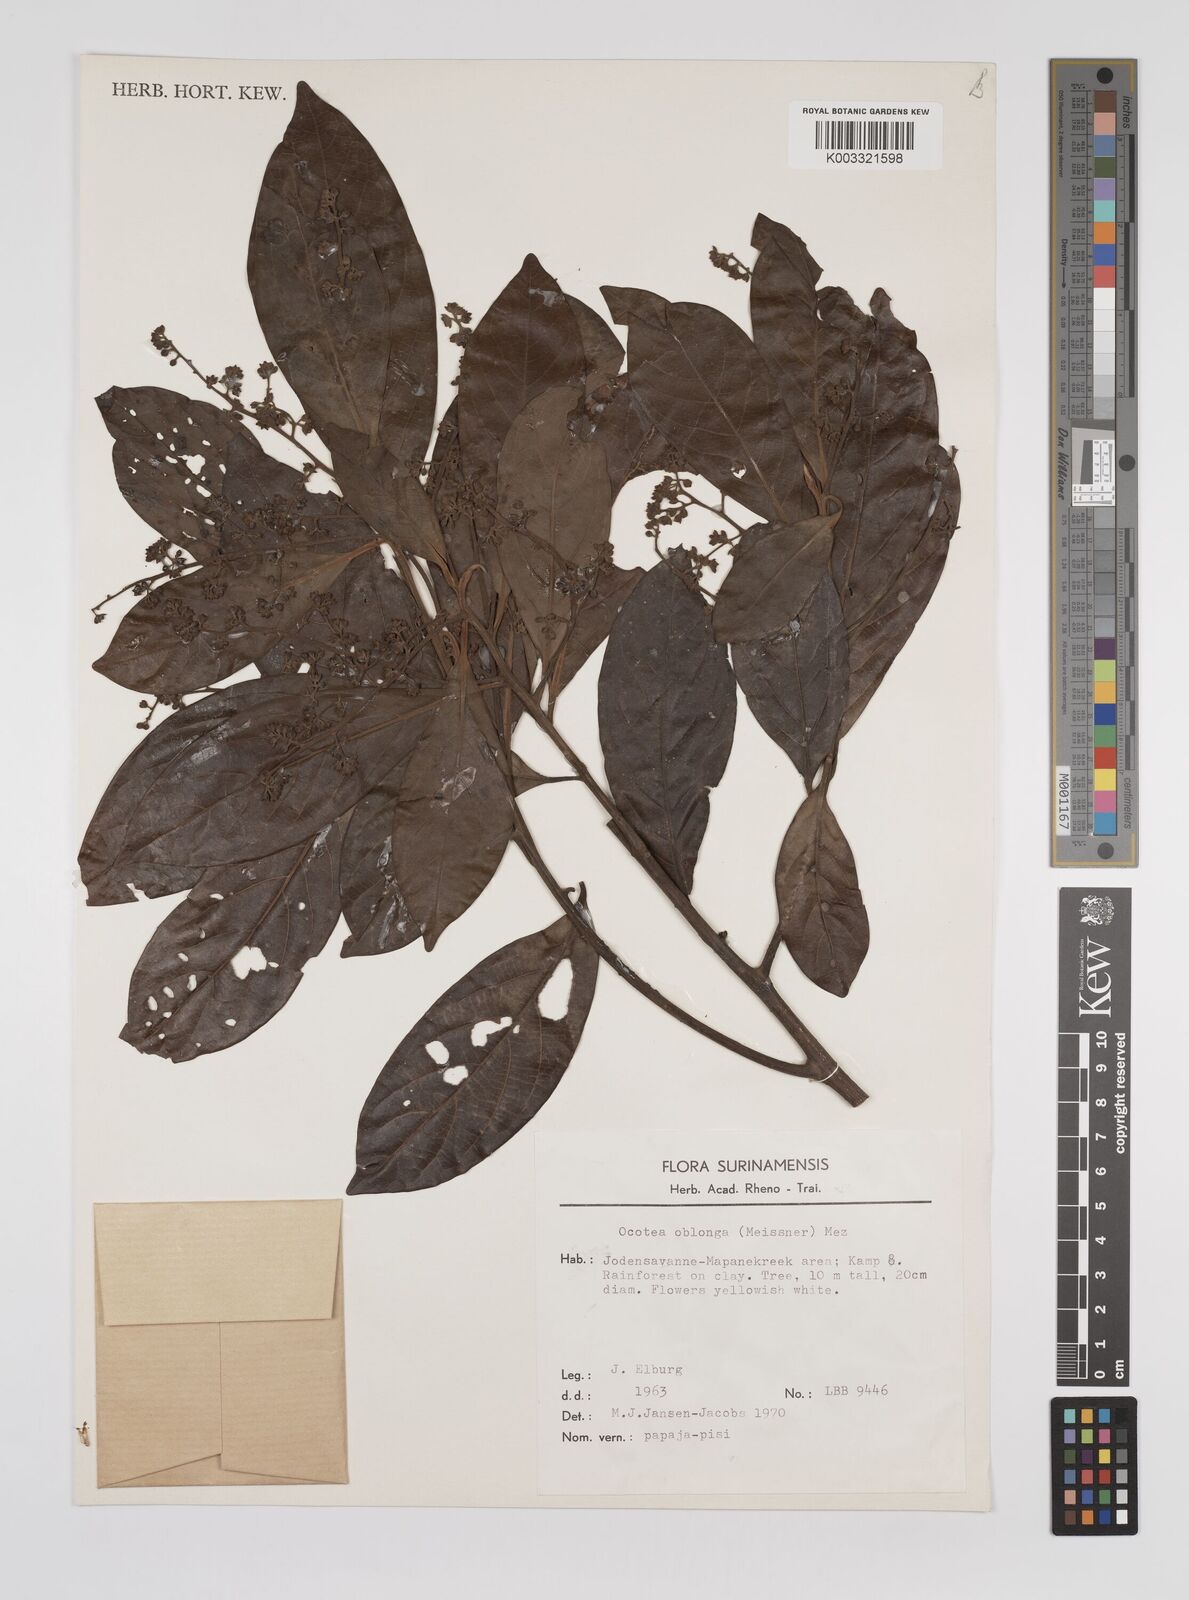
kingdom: Plantae
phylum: Tracheophyta
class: Magnoliopsida
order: Laurales
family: Lauraceae
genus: Ocotea
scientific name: Ocotea oblonga
